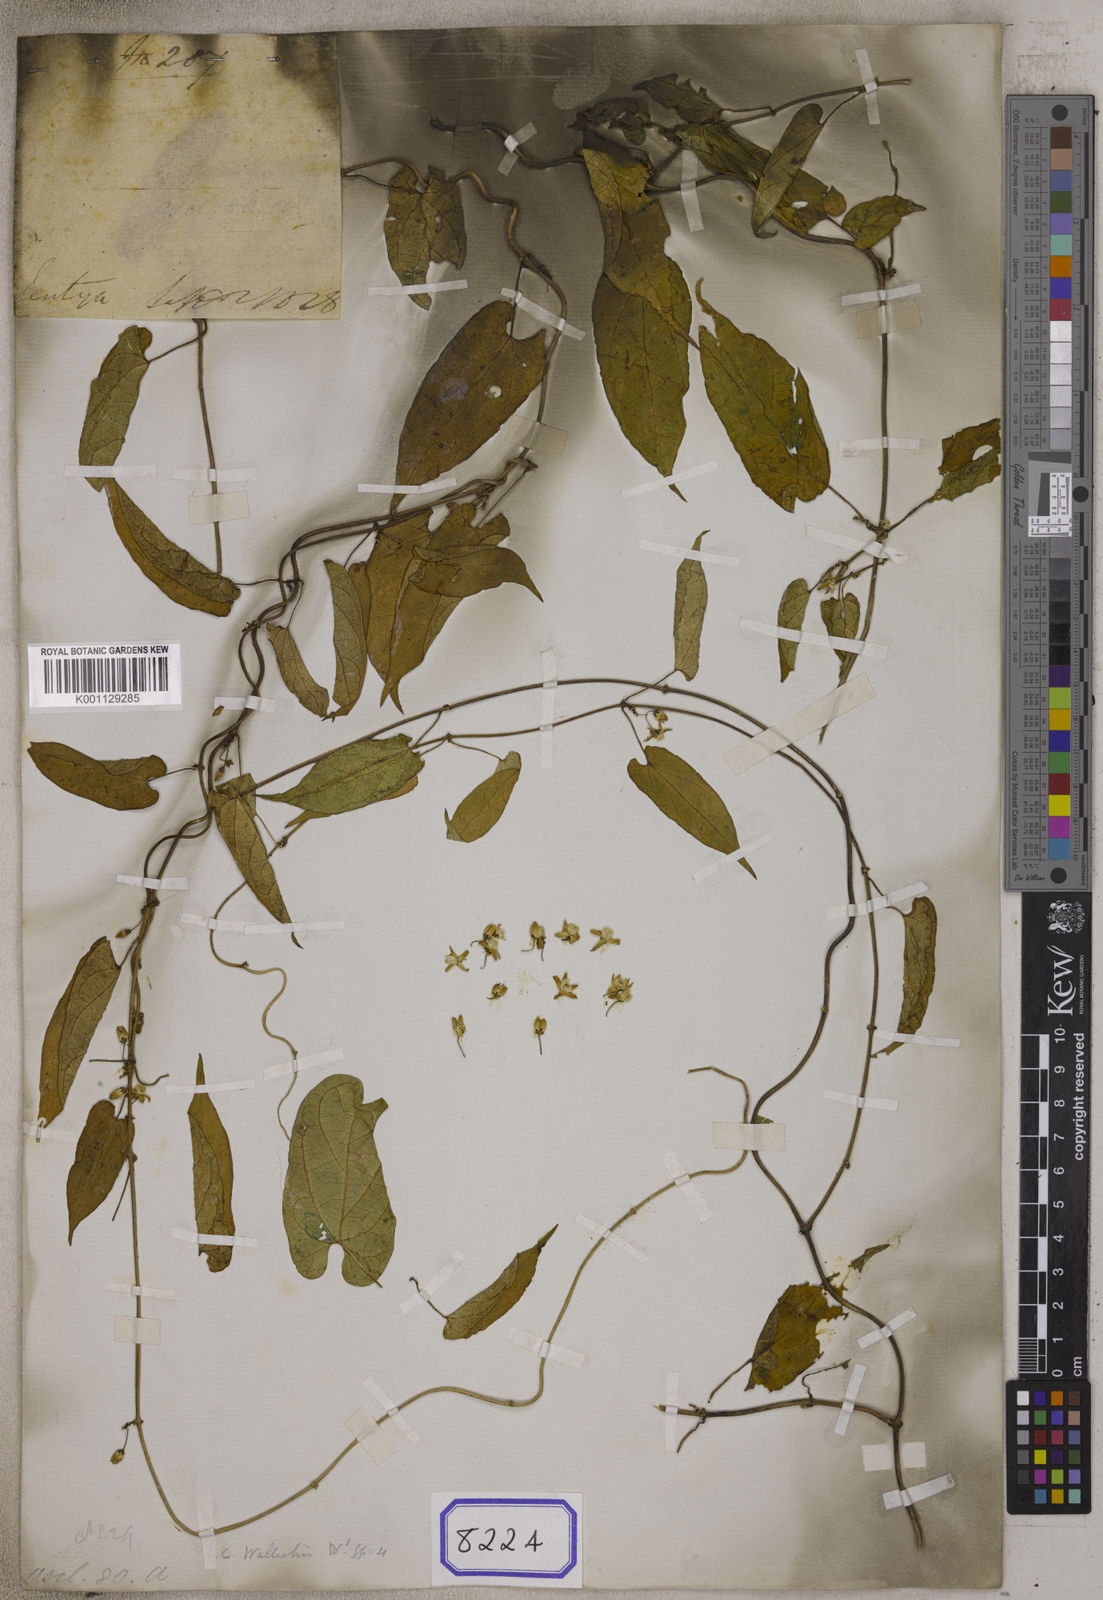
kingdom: Plantae
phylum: Tracheophyta
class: Magnoliopsida
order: Gentianales
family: Apocynaceae
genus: Cynanchum
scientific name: Cynanchum wallichii
